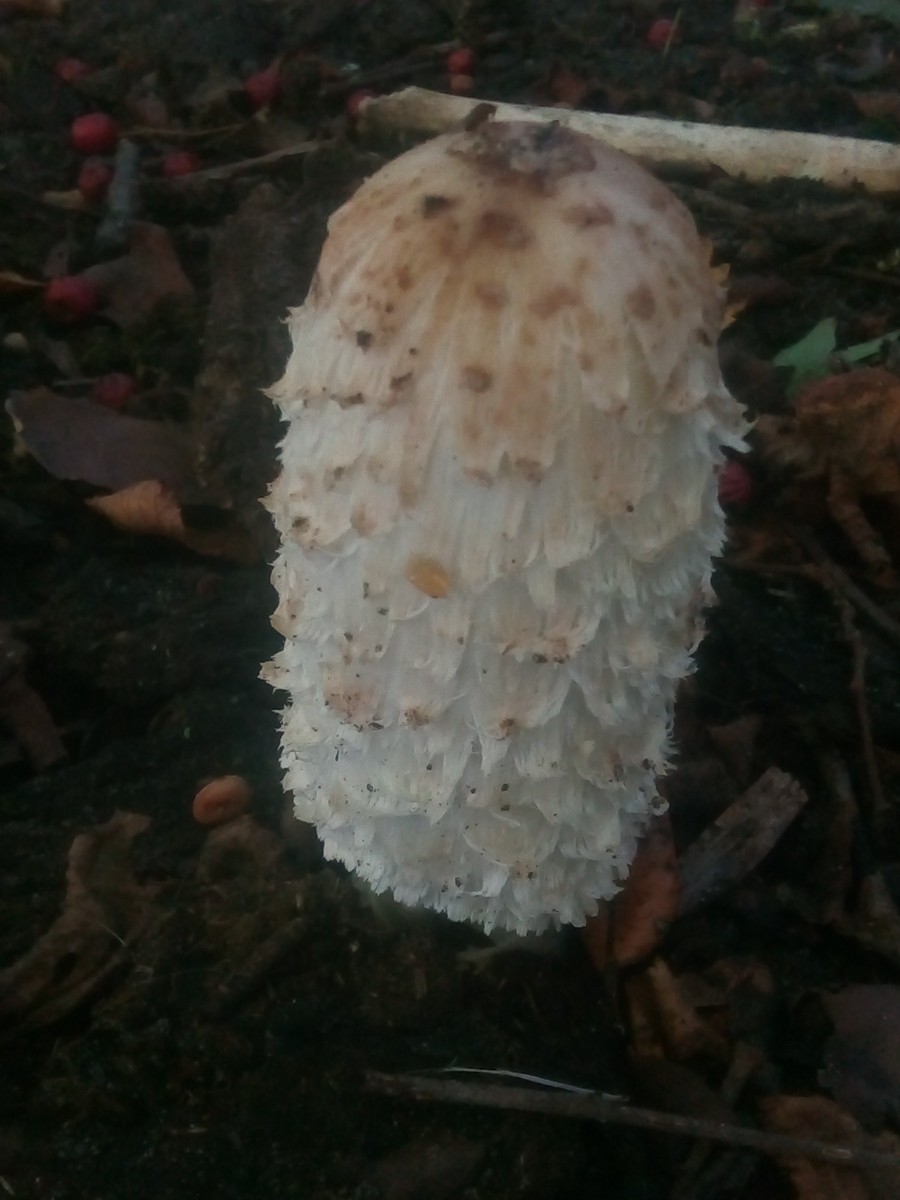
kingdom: Fungi
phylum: Basidiomycota
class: Agaricomycetes
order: Agaricales
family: Agaricaceae
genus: Coprinus
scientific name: Coprinus comatus
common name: stor parykhat
